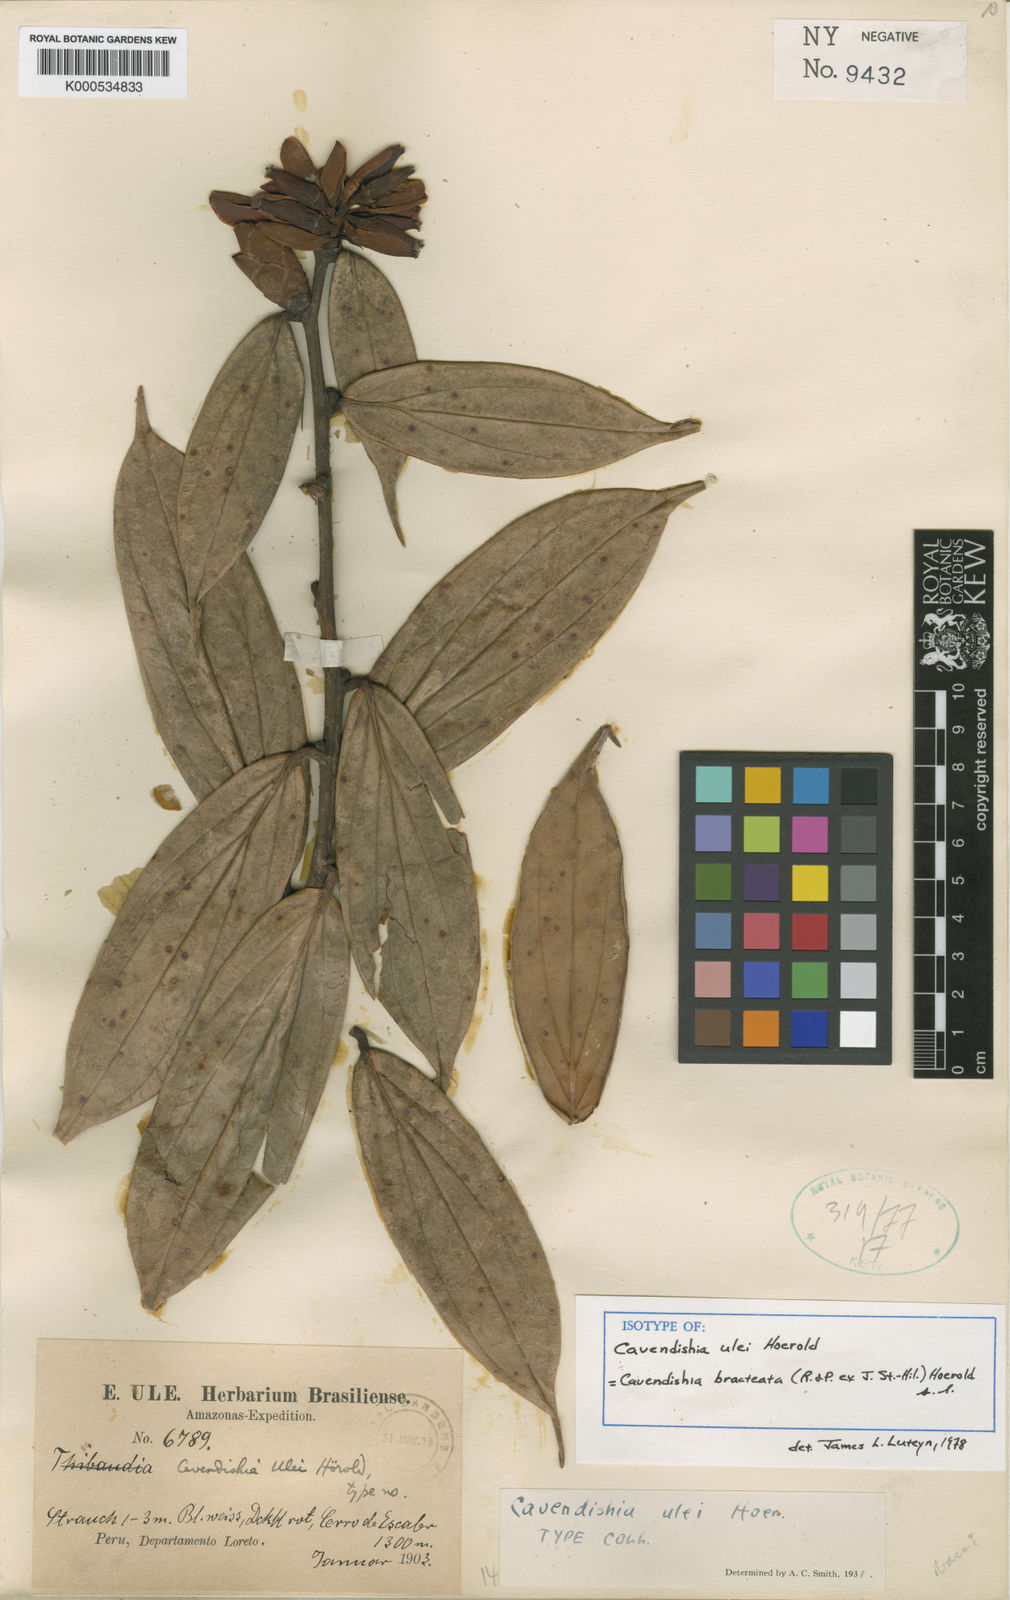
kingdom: Plantae
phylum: Tracheophyta
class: Magnoliopsida
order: Ericales
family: Ericaceae
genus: Cavendishia
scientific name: Cavendishia bracteata
